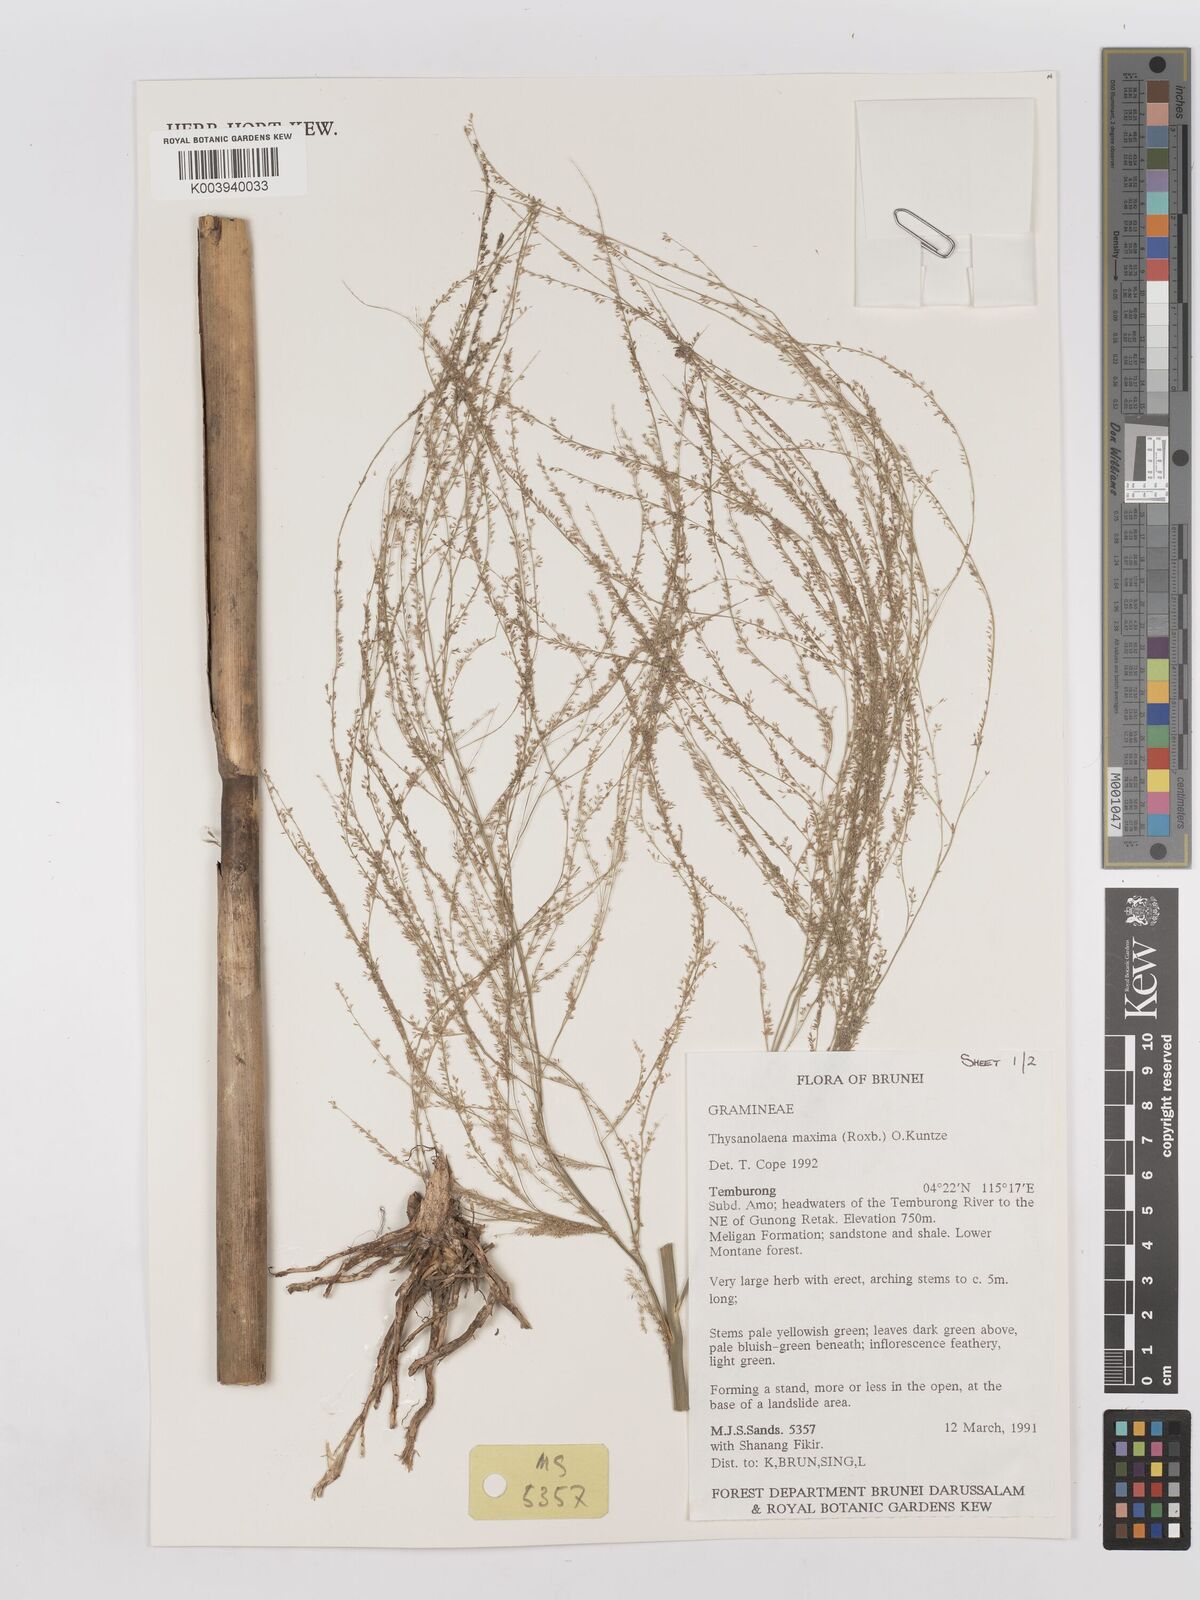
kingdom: Plantae
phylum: Tracheophyta
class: Liliopsida
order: Poales
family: Poaceae
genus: Thysanolaena
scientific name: Thysanolaena latifolia
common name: Tiger grass
